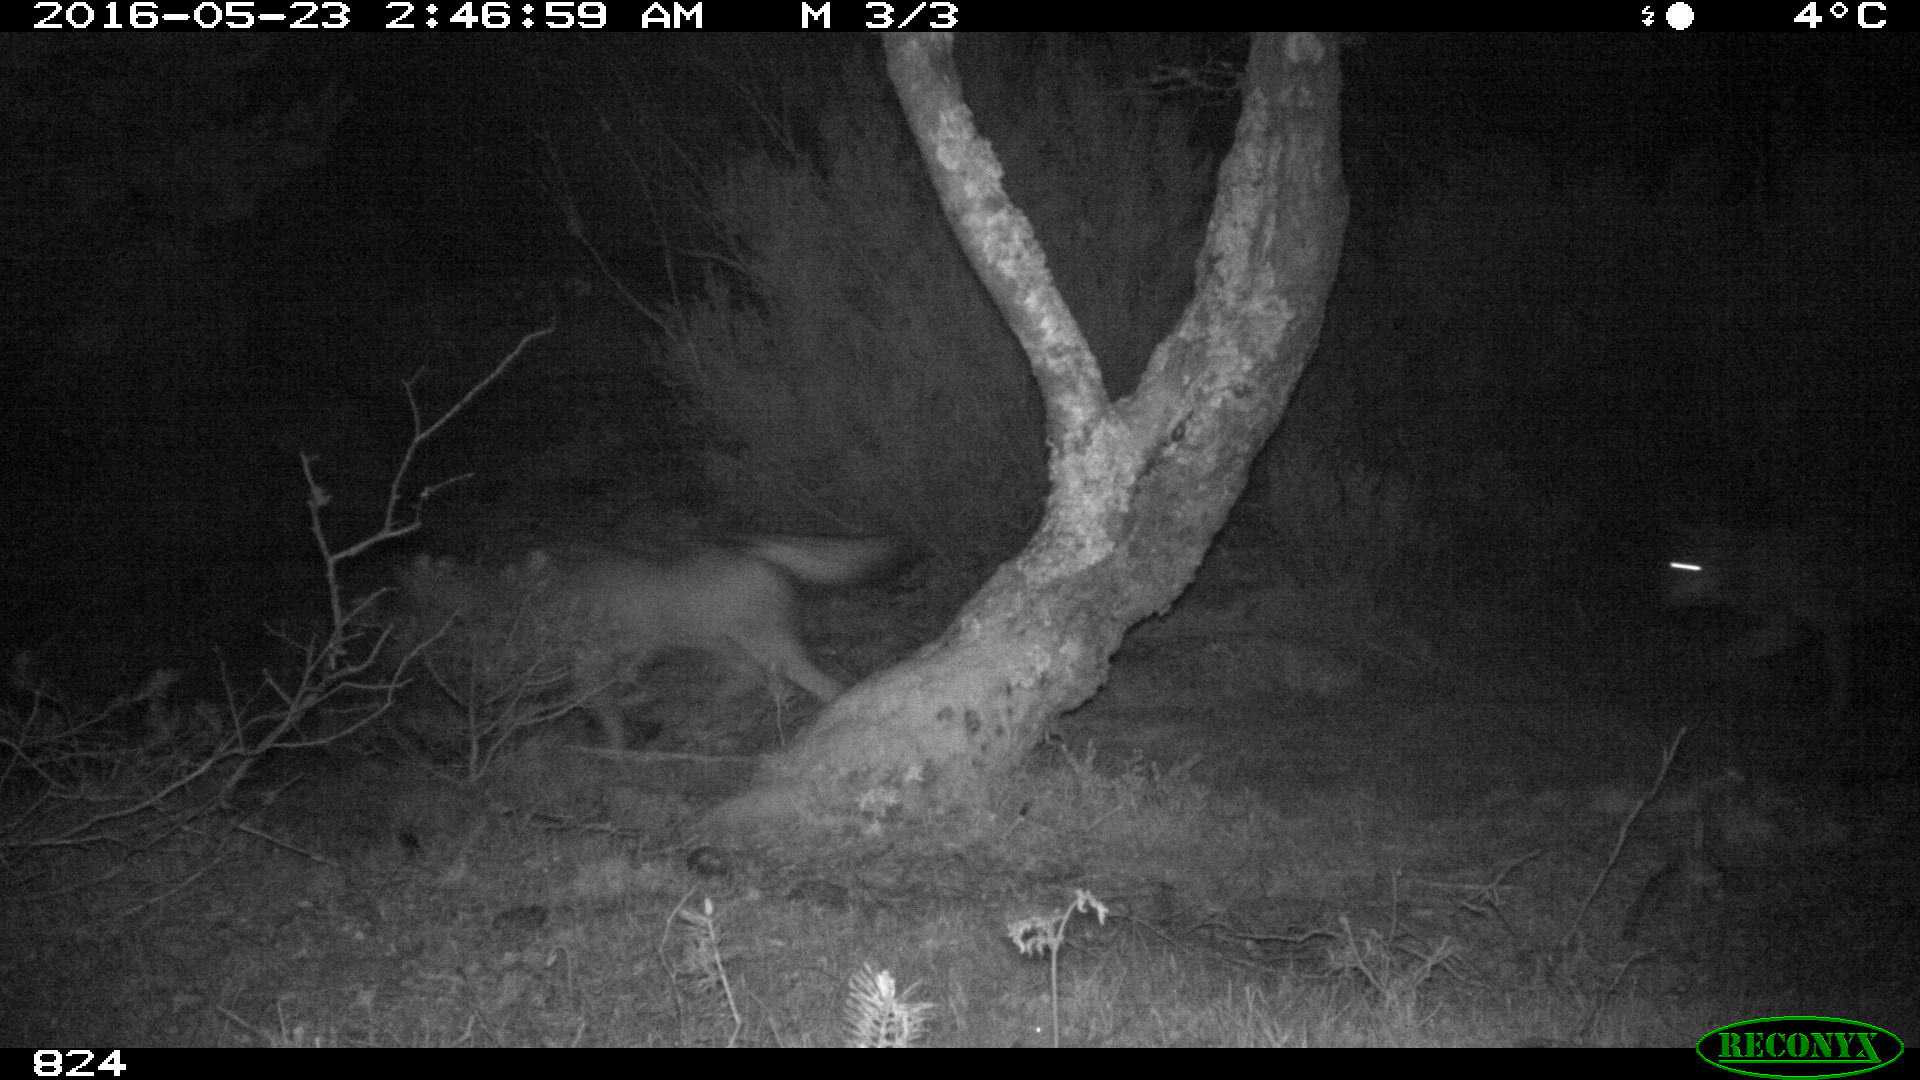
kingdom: Animalia
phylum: Chordata
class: Mammalia
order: Carnivora
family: Canidae
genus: Canis
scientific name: Canis lupus
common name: Gray wolf
